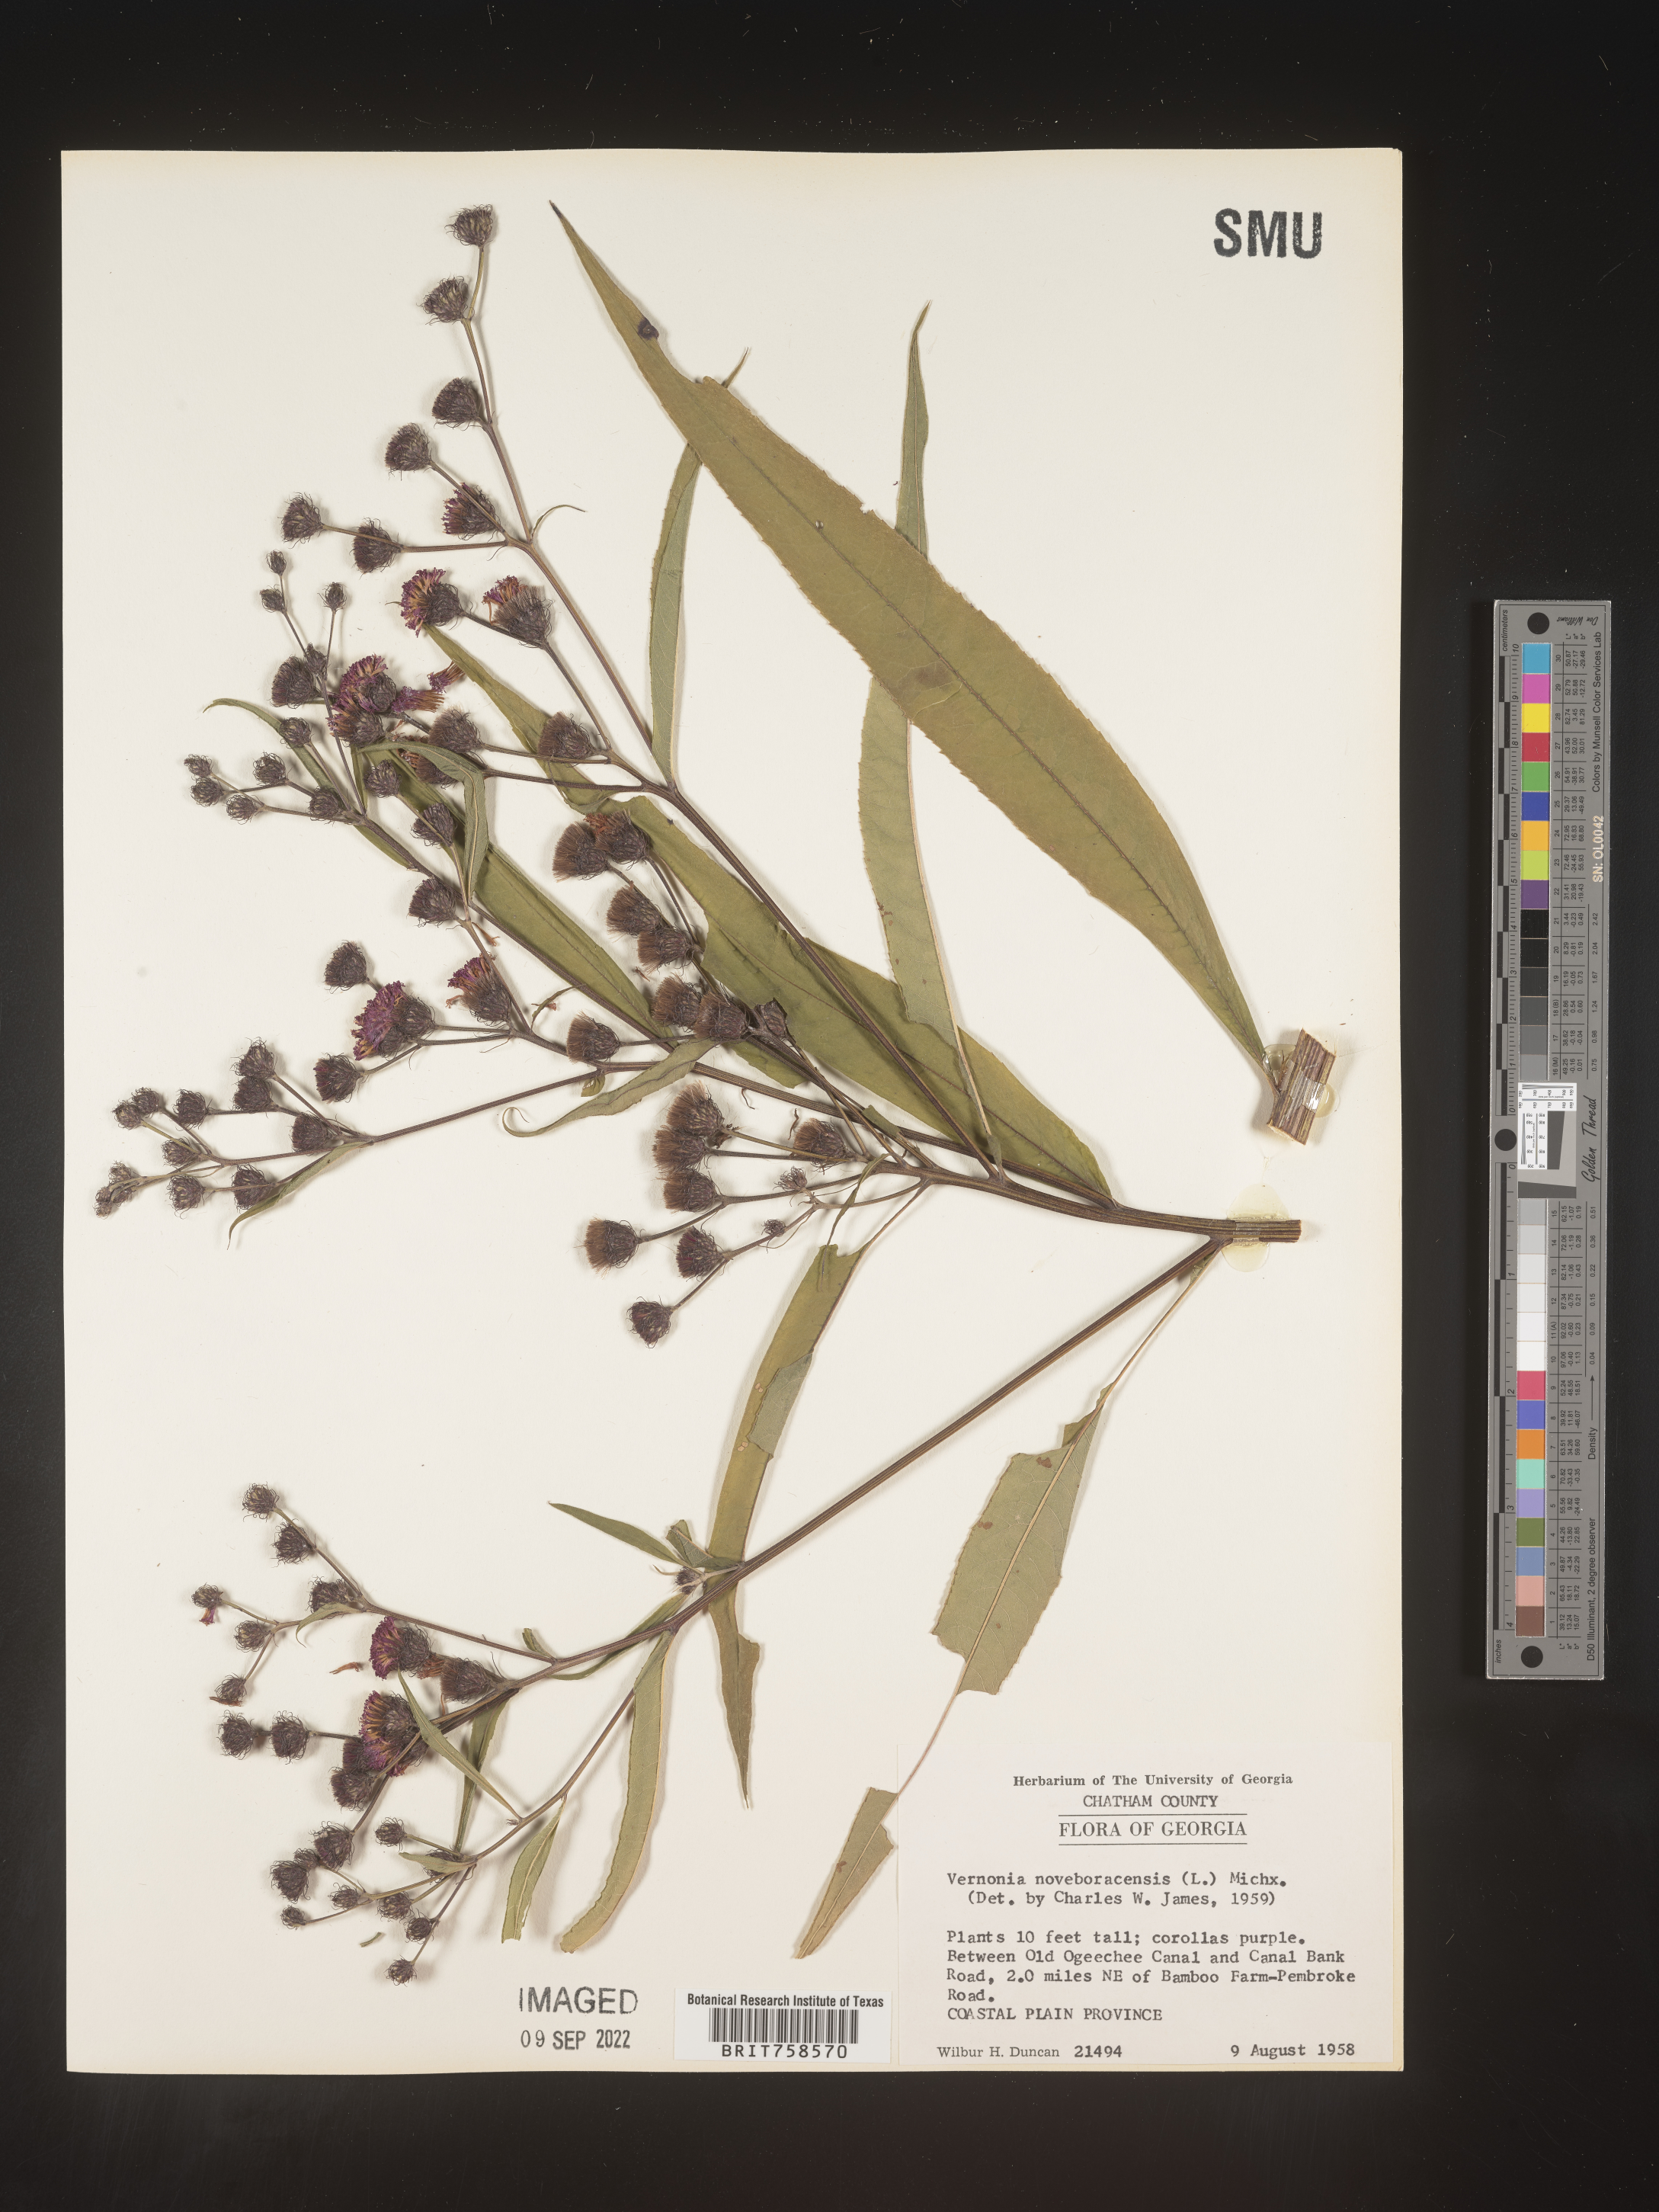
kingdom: Plantae
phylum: Tracheophyta
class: Magnoliopsida
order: Asterales
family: Asteraceae
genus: Vernonia
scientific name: Vernonia noveboracensis
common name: New york ironweed
